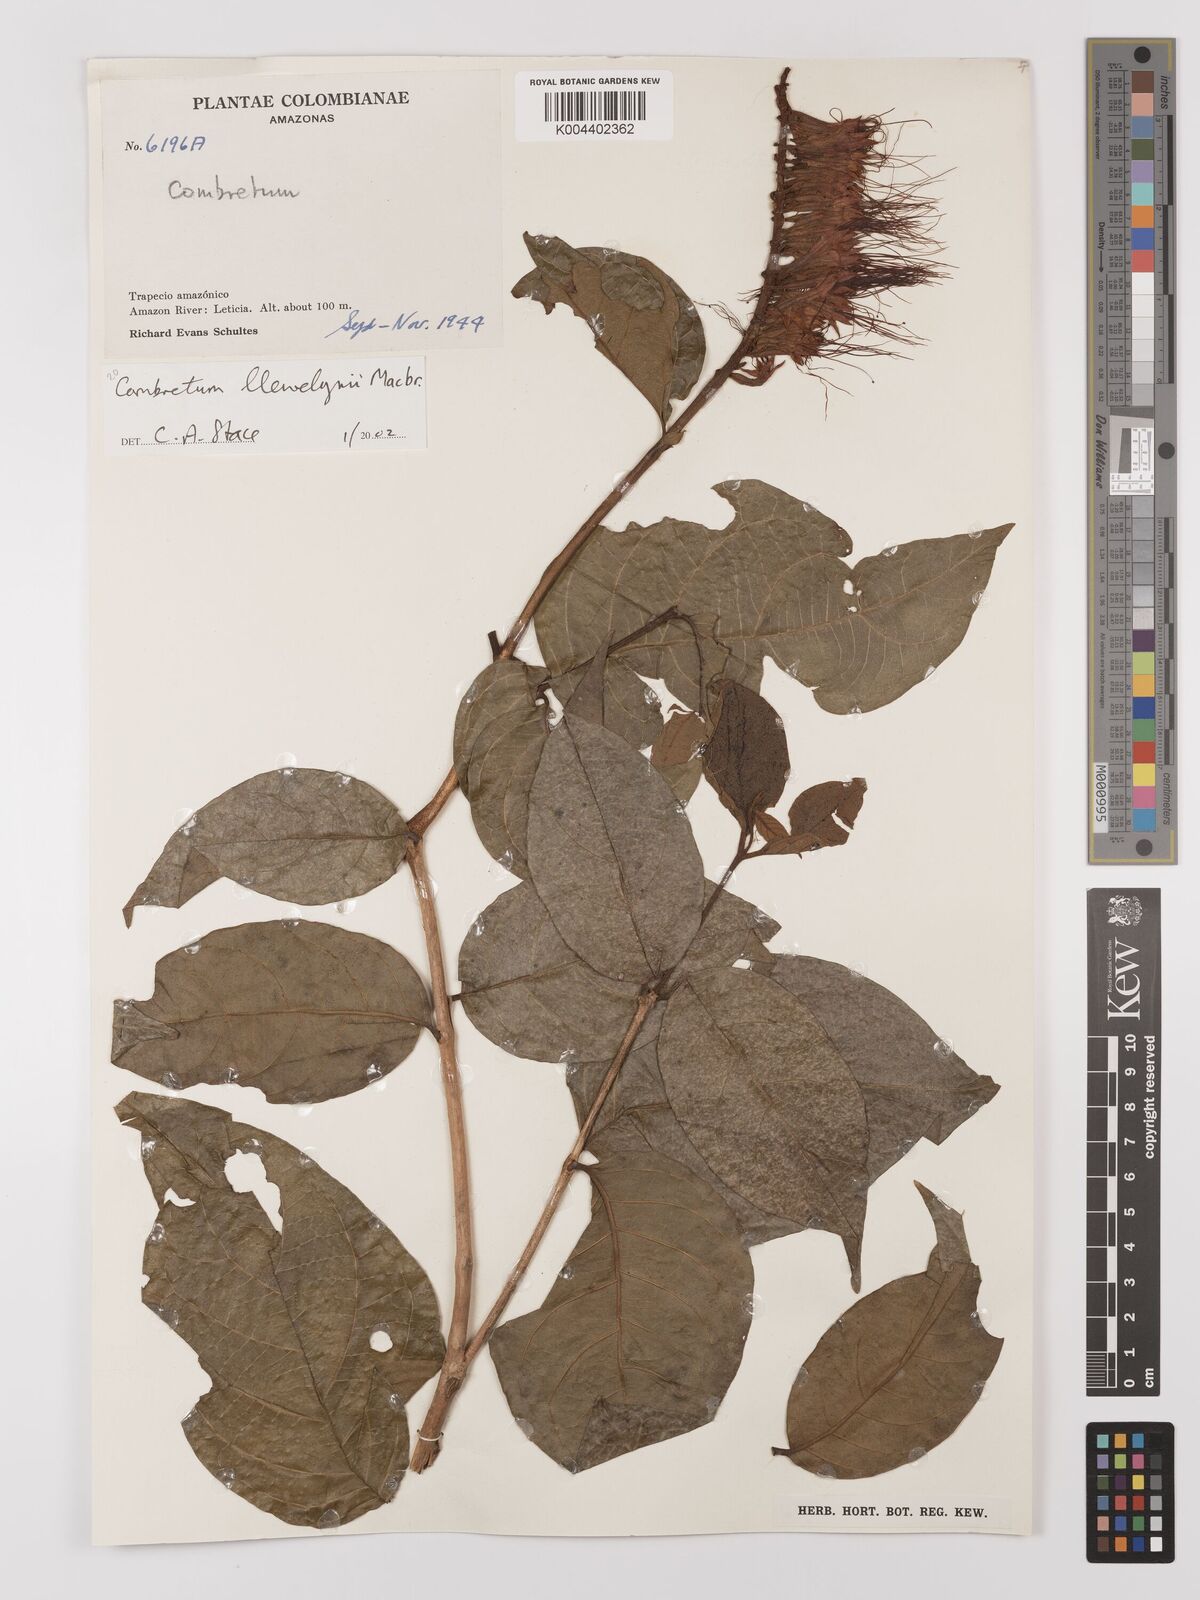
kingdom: Plantae
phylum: Tracheophyta
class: Magnoliopsida
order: Myrtales
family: Combretaceae
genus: Combretum
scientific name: Combretum llewelynii
